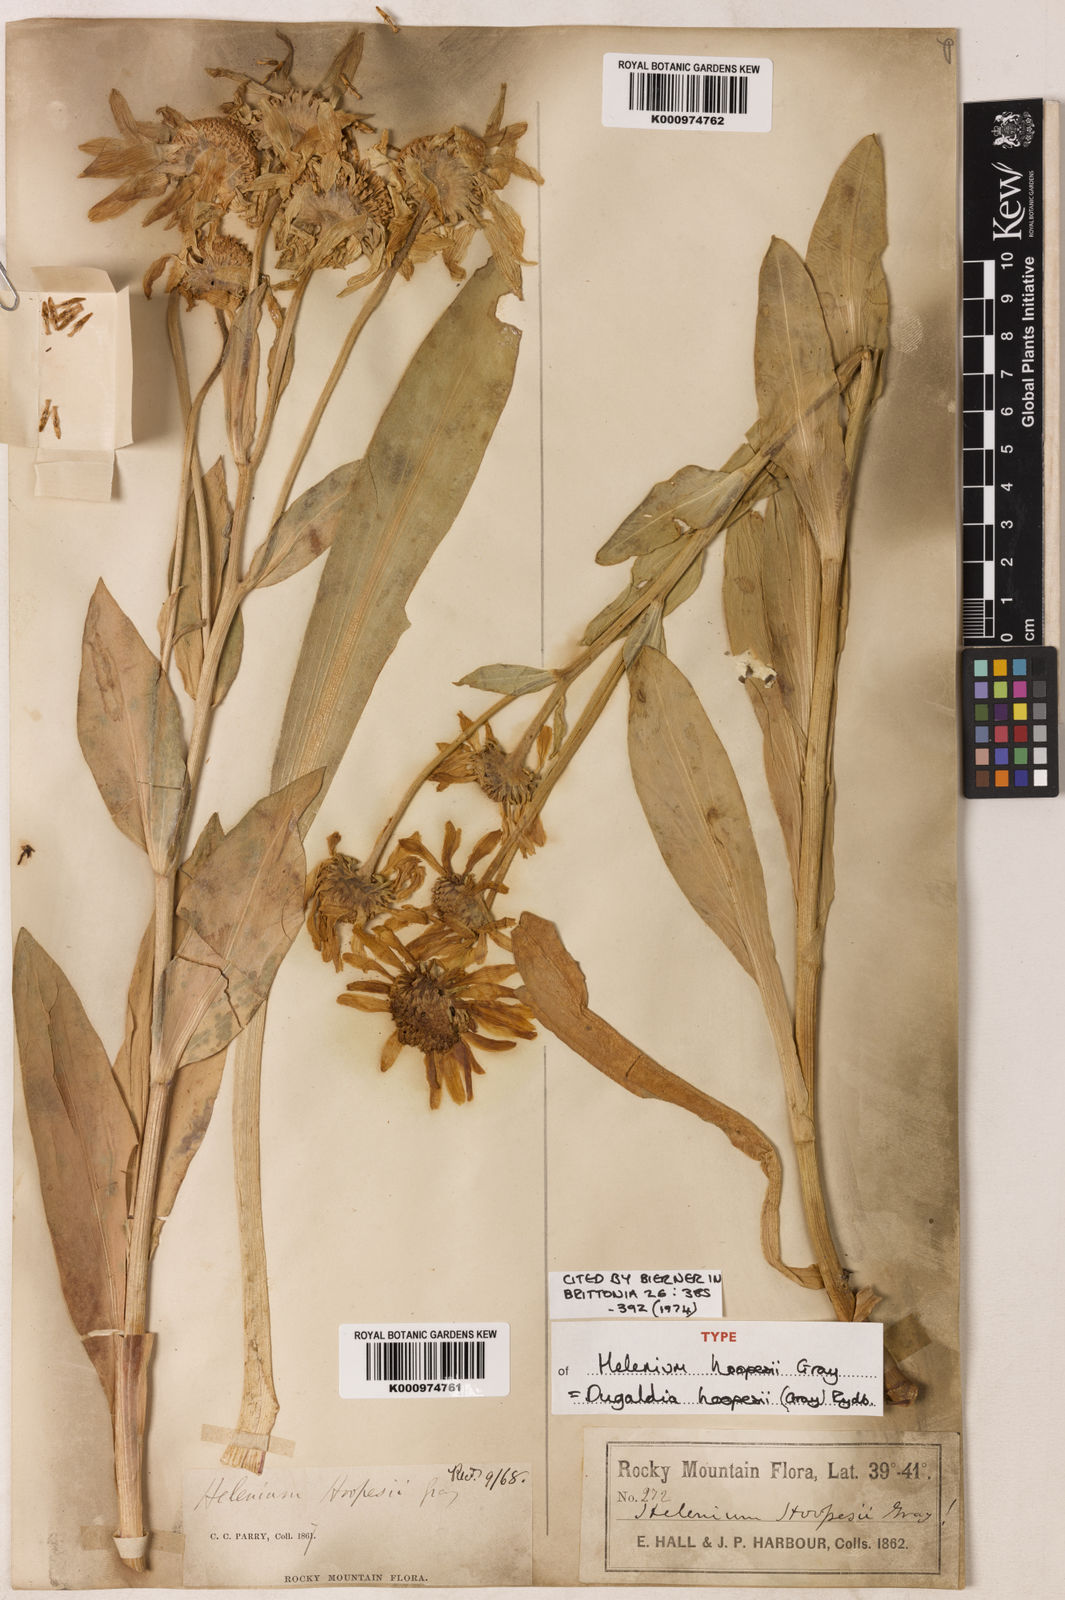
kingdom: Plantae
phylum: Tracheophyta
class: Magnoliopsida
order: Asterales
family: Asteraceae
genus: Hymenoxys
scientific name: Hymenoxys hoopesii
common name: Orange-sneezeweed
